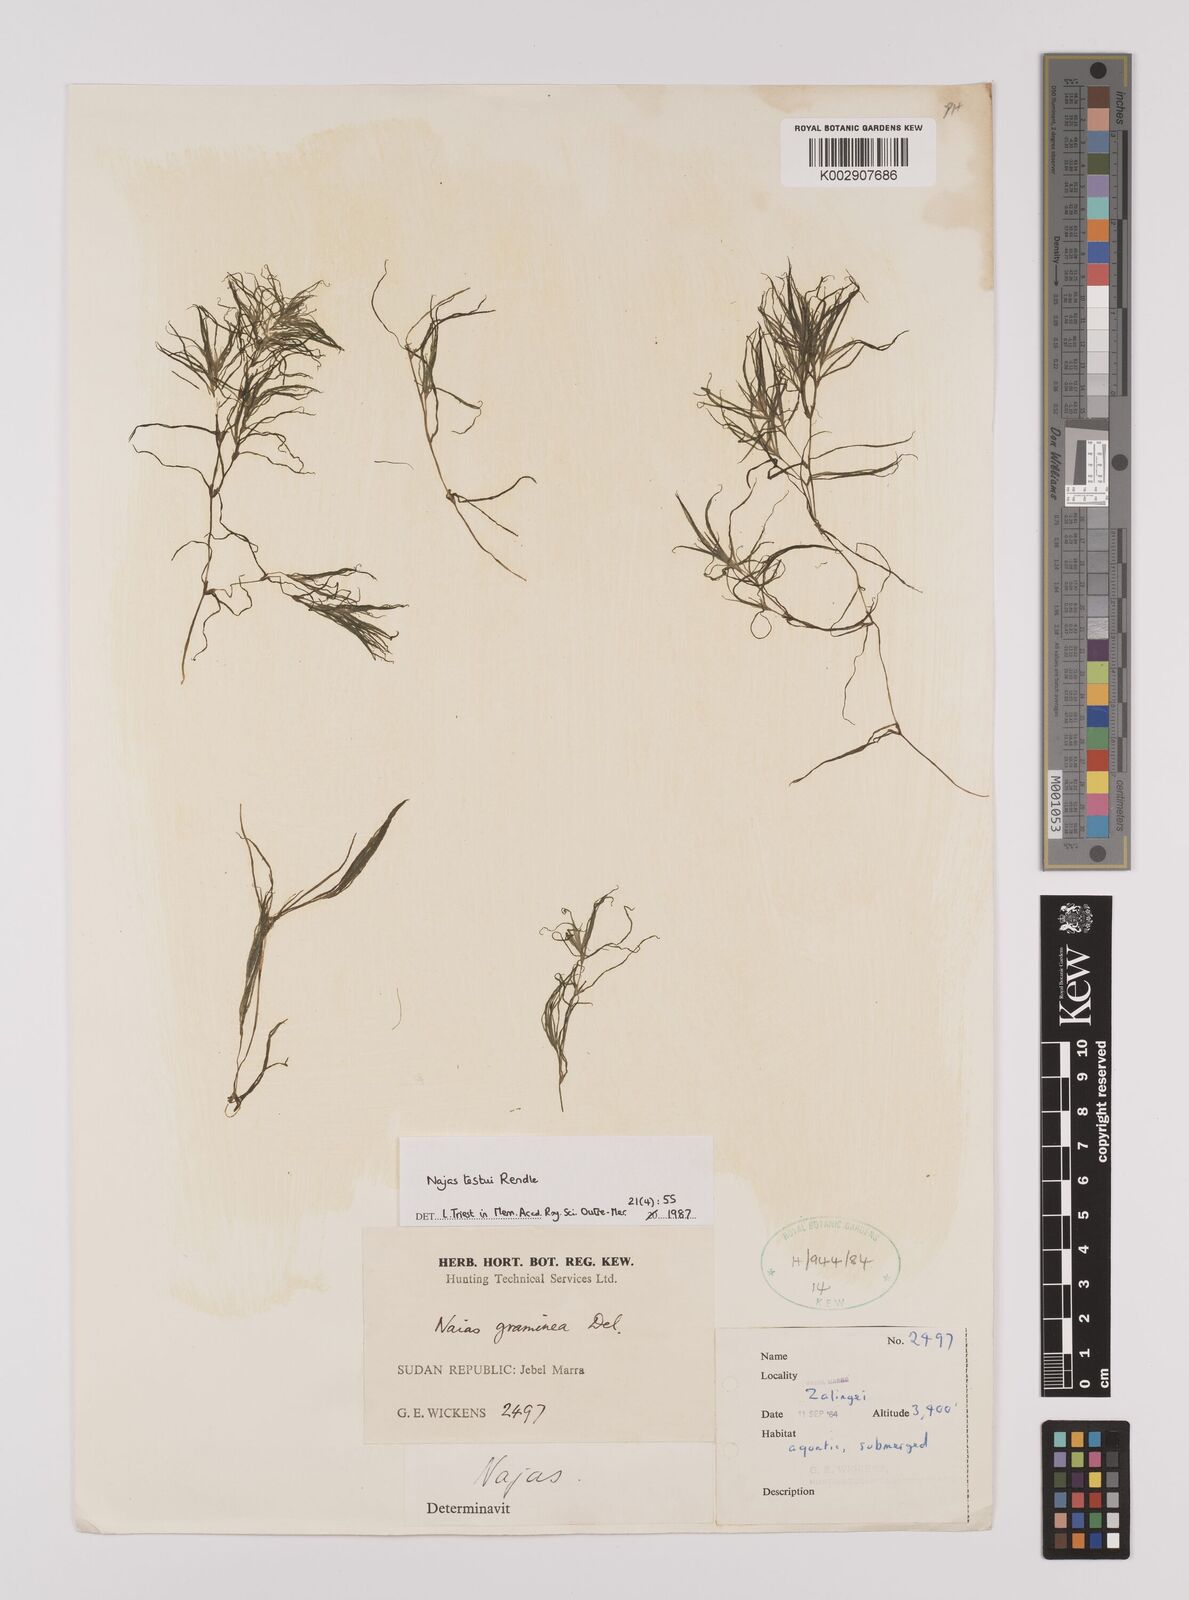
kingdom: Plantae
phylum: Tracheophyta
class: Liliopsida
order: Alismatales
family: Hydrocharitaceae
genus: Najas
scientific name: Najas testui
